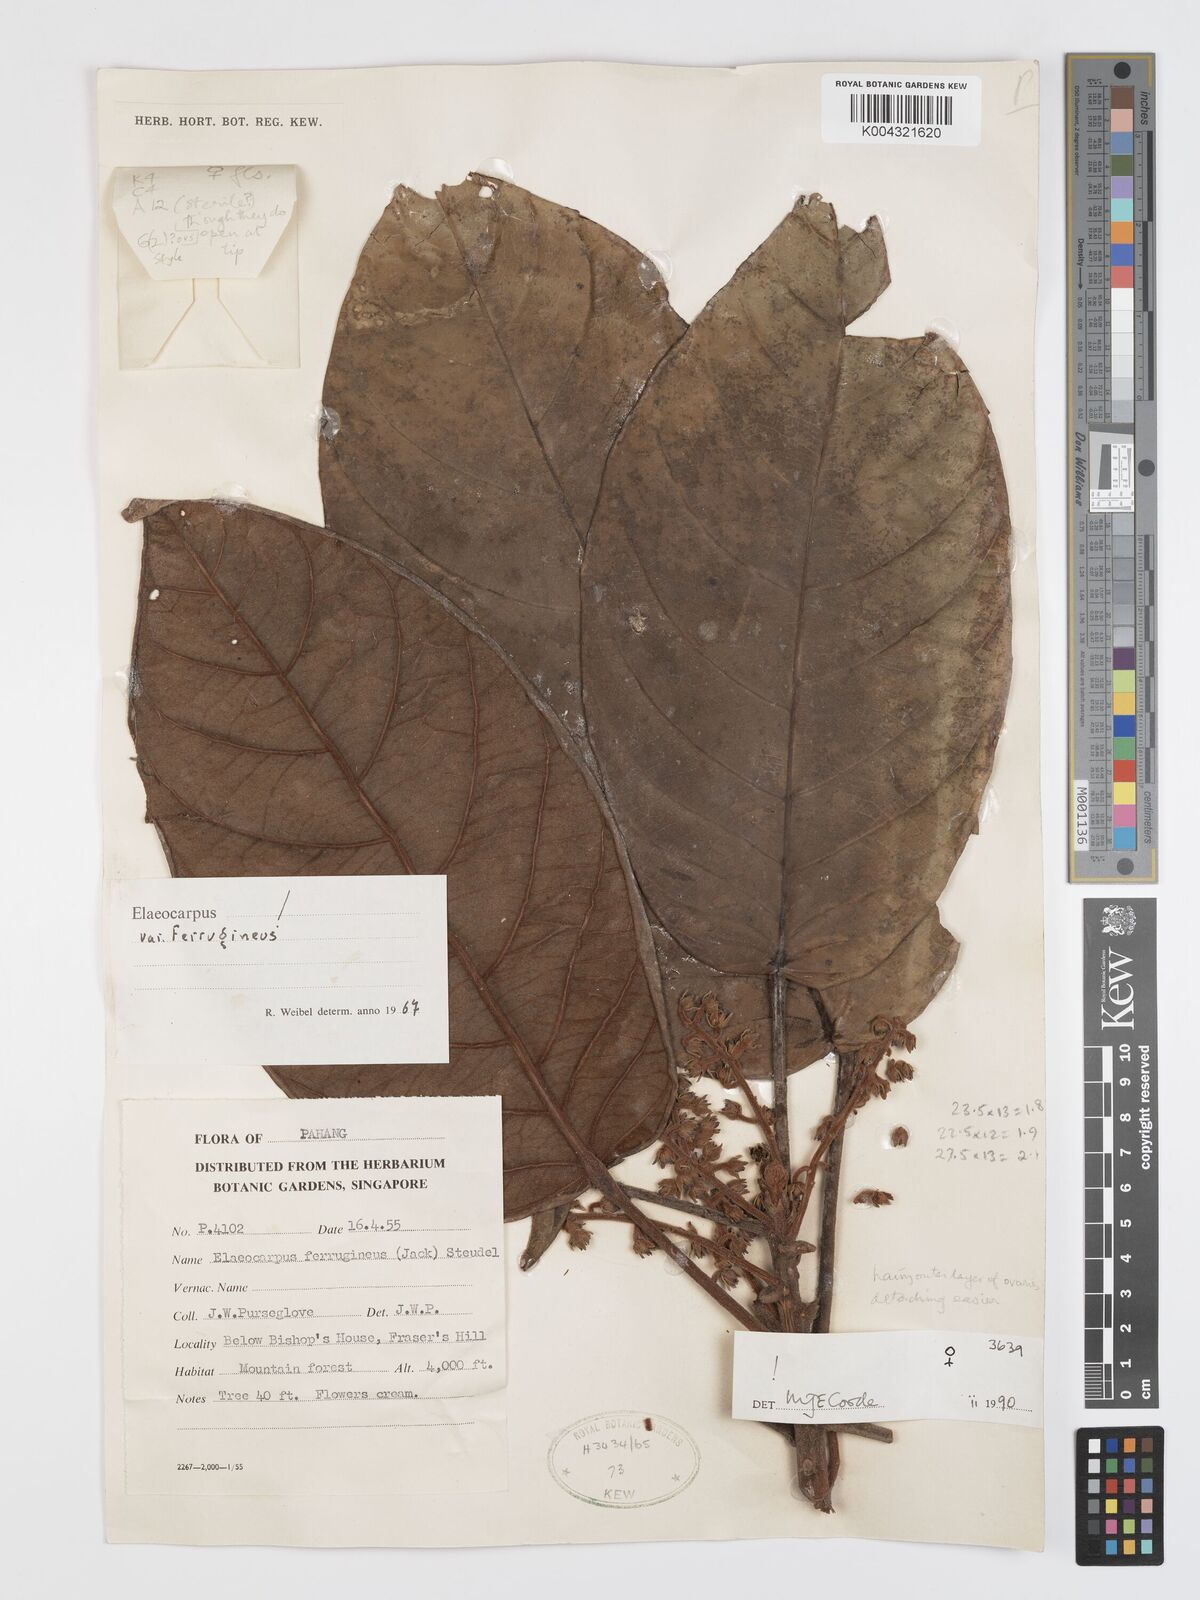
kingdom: Plantae
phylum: Tracheophyta
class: Magnoliopsida
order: Oxalidales
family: Elaeocarpaceae
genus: Elaeocarpus
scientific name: Elaeocarpus ferrugineus
